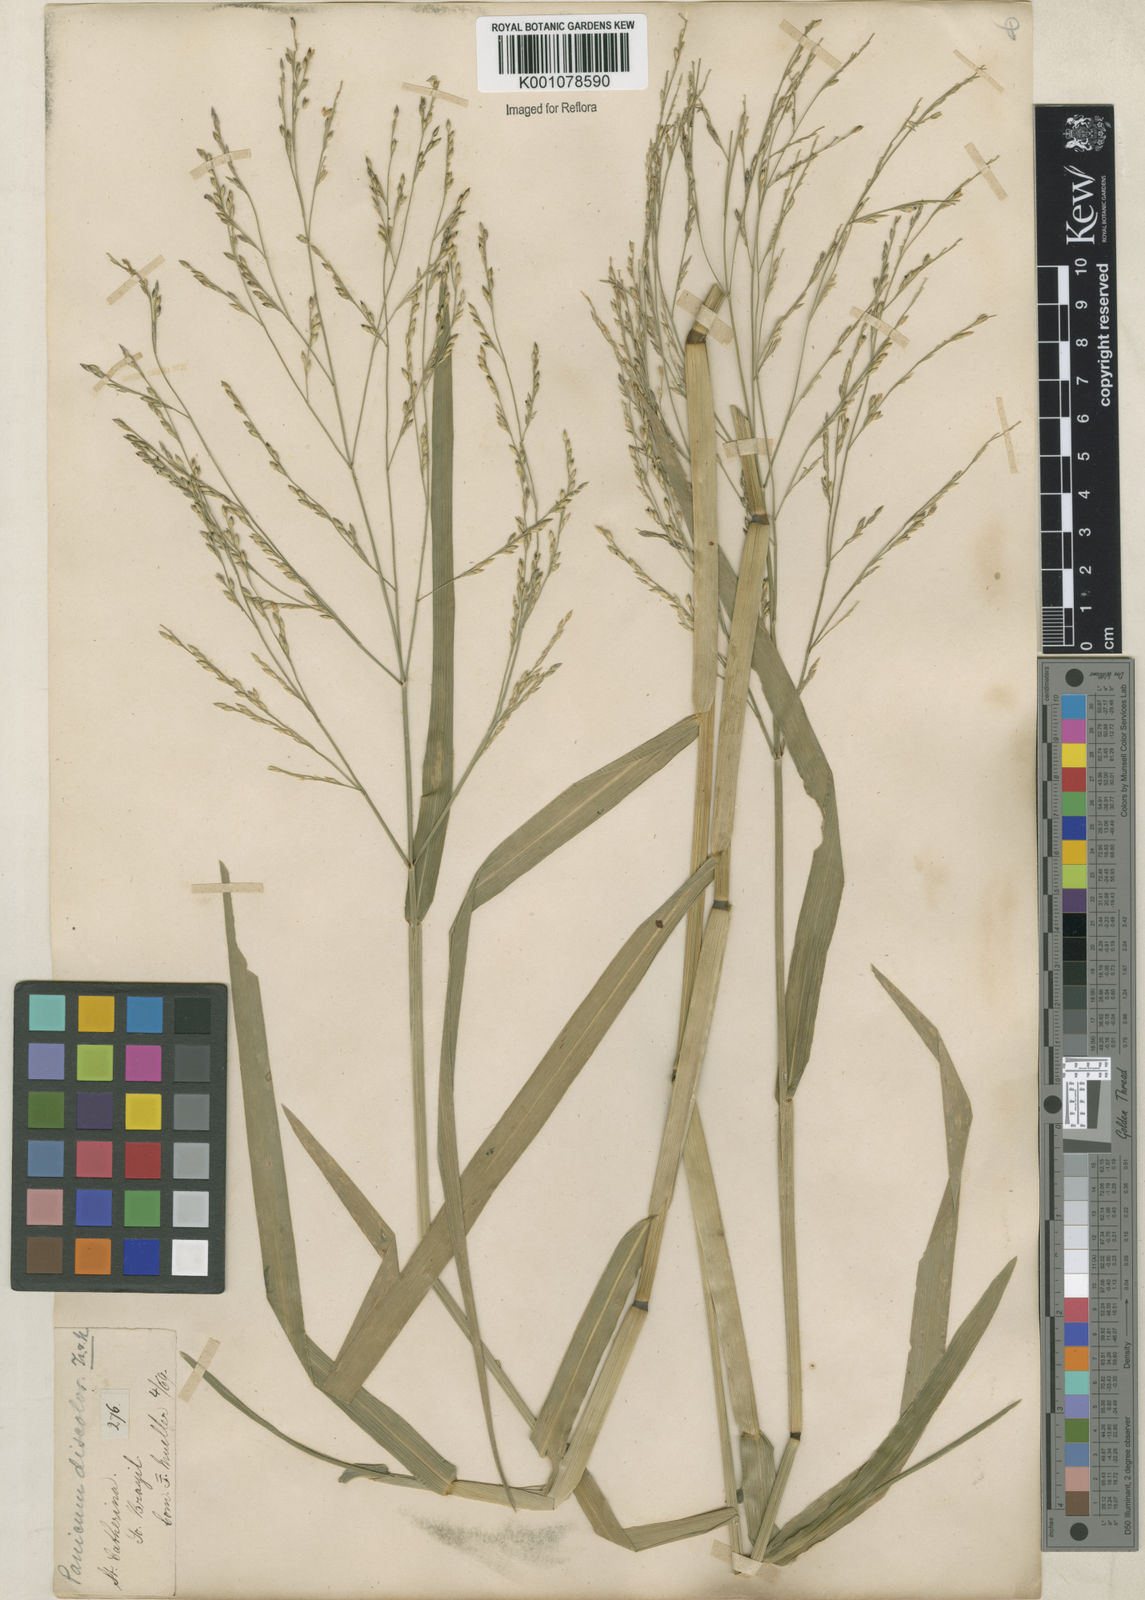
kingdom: Plantae
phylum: Tracheophyta
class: Liliopsida
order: Poales
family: Poaceae
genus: Panicum
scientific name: Panicum dichotomiflorum
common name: Autumn millet
